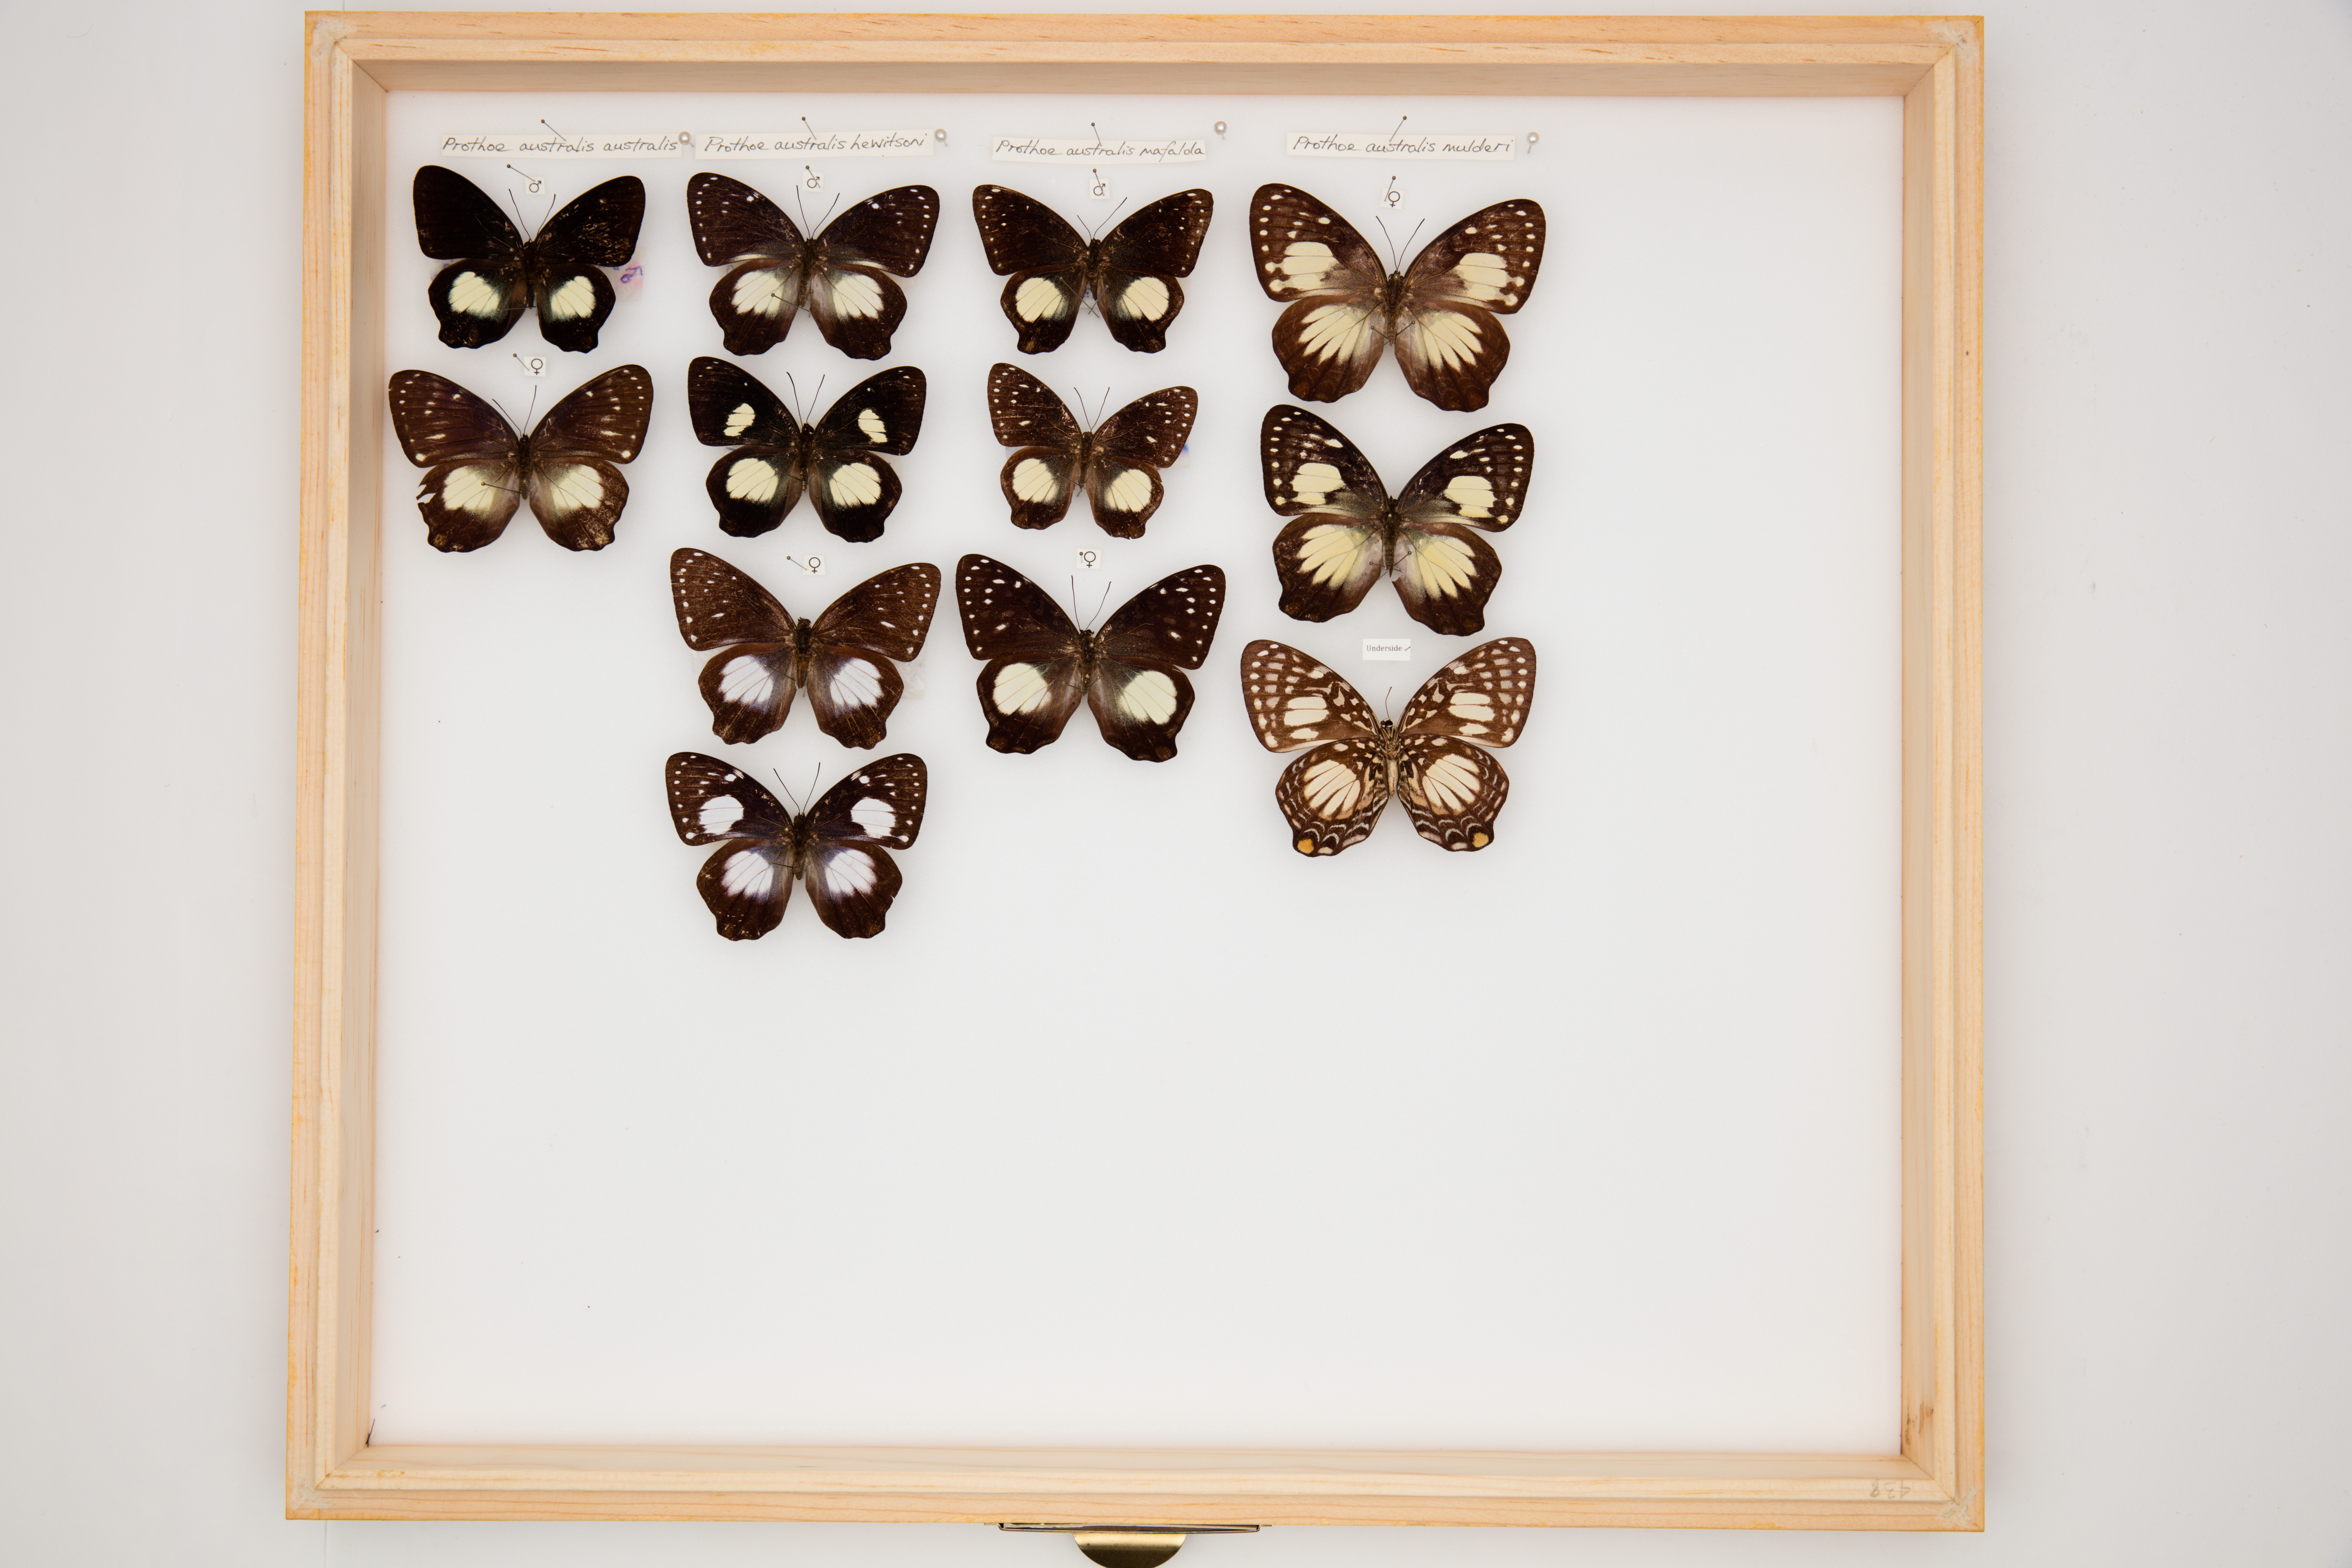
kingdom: Animalia
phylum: Arthropoda
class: Insecta
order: Lepidoptera
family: Nymphalidae
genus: Prothoe
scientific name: Prothoe australis
